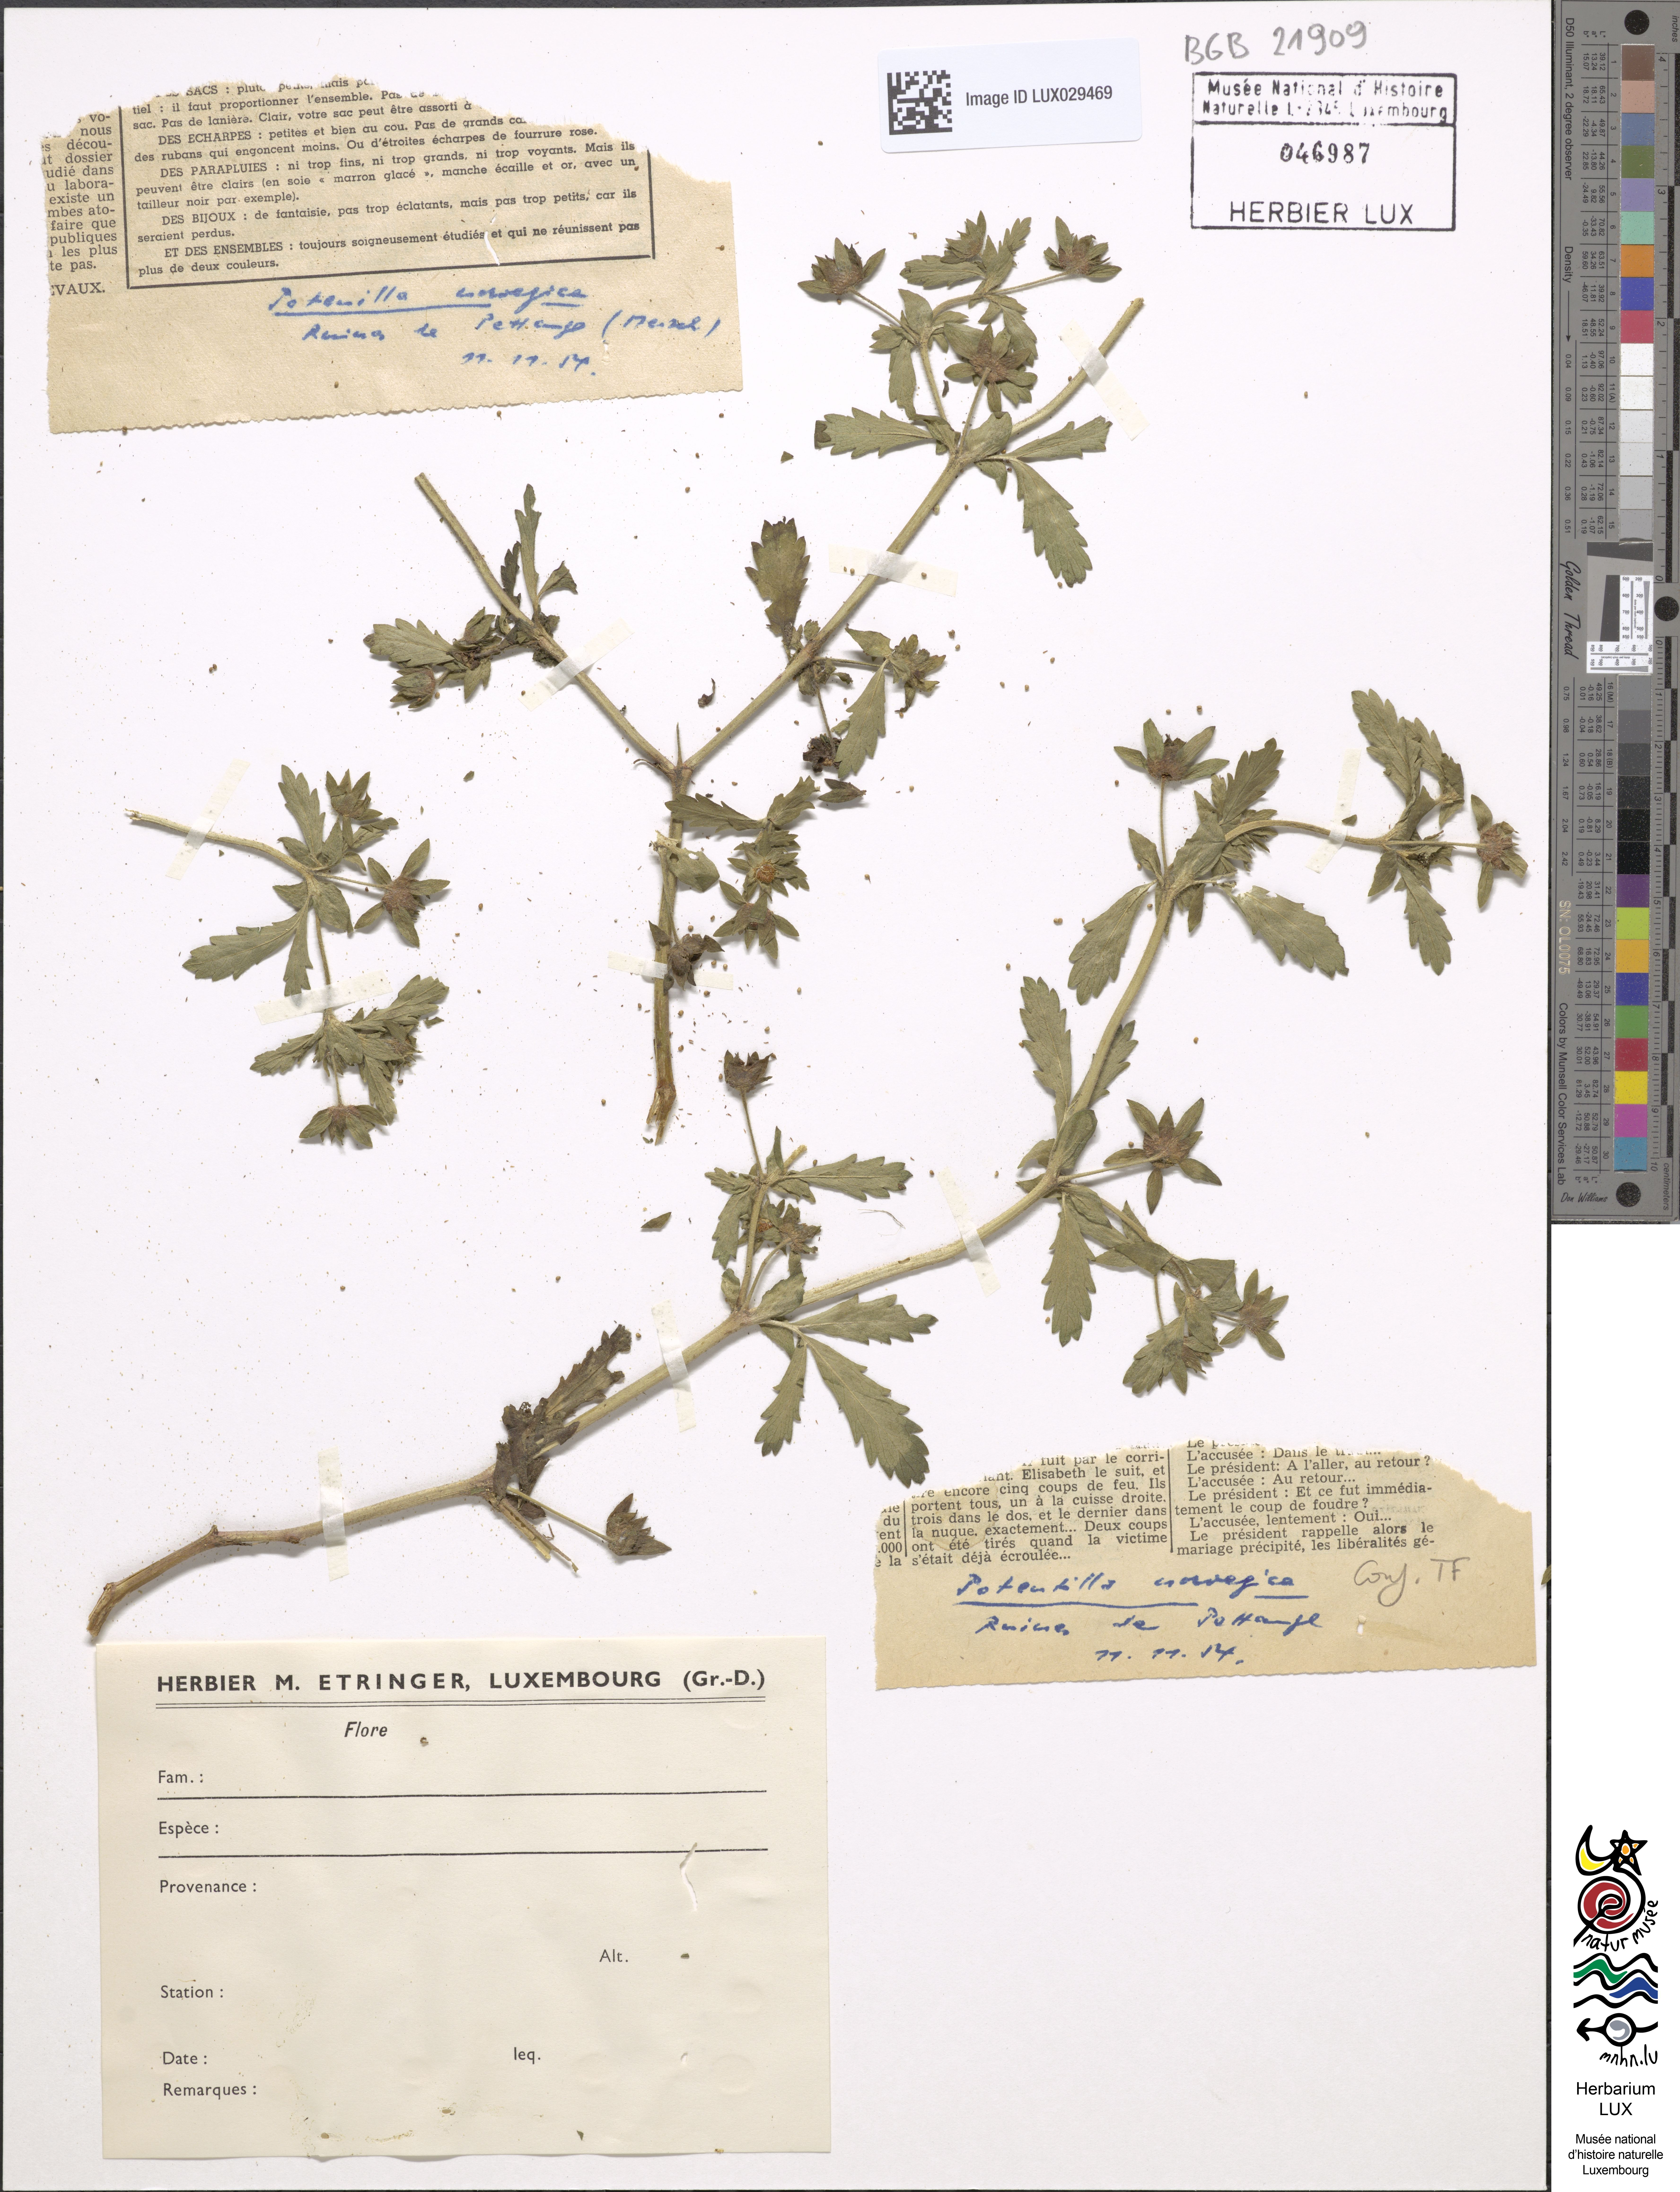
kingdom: Plantae
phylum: Tracheophyta
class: Magnoliopsida
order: Rosales
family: Rosaceae
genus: Potentilla
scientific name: Potentilla norvegica
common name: Ternate-leaved cinquefoil
